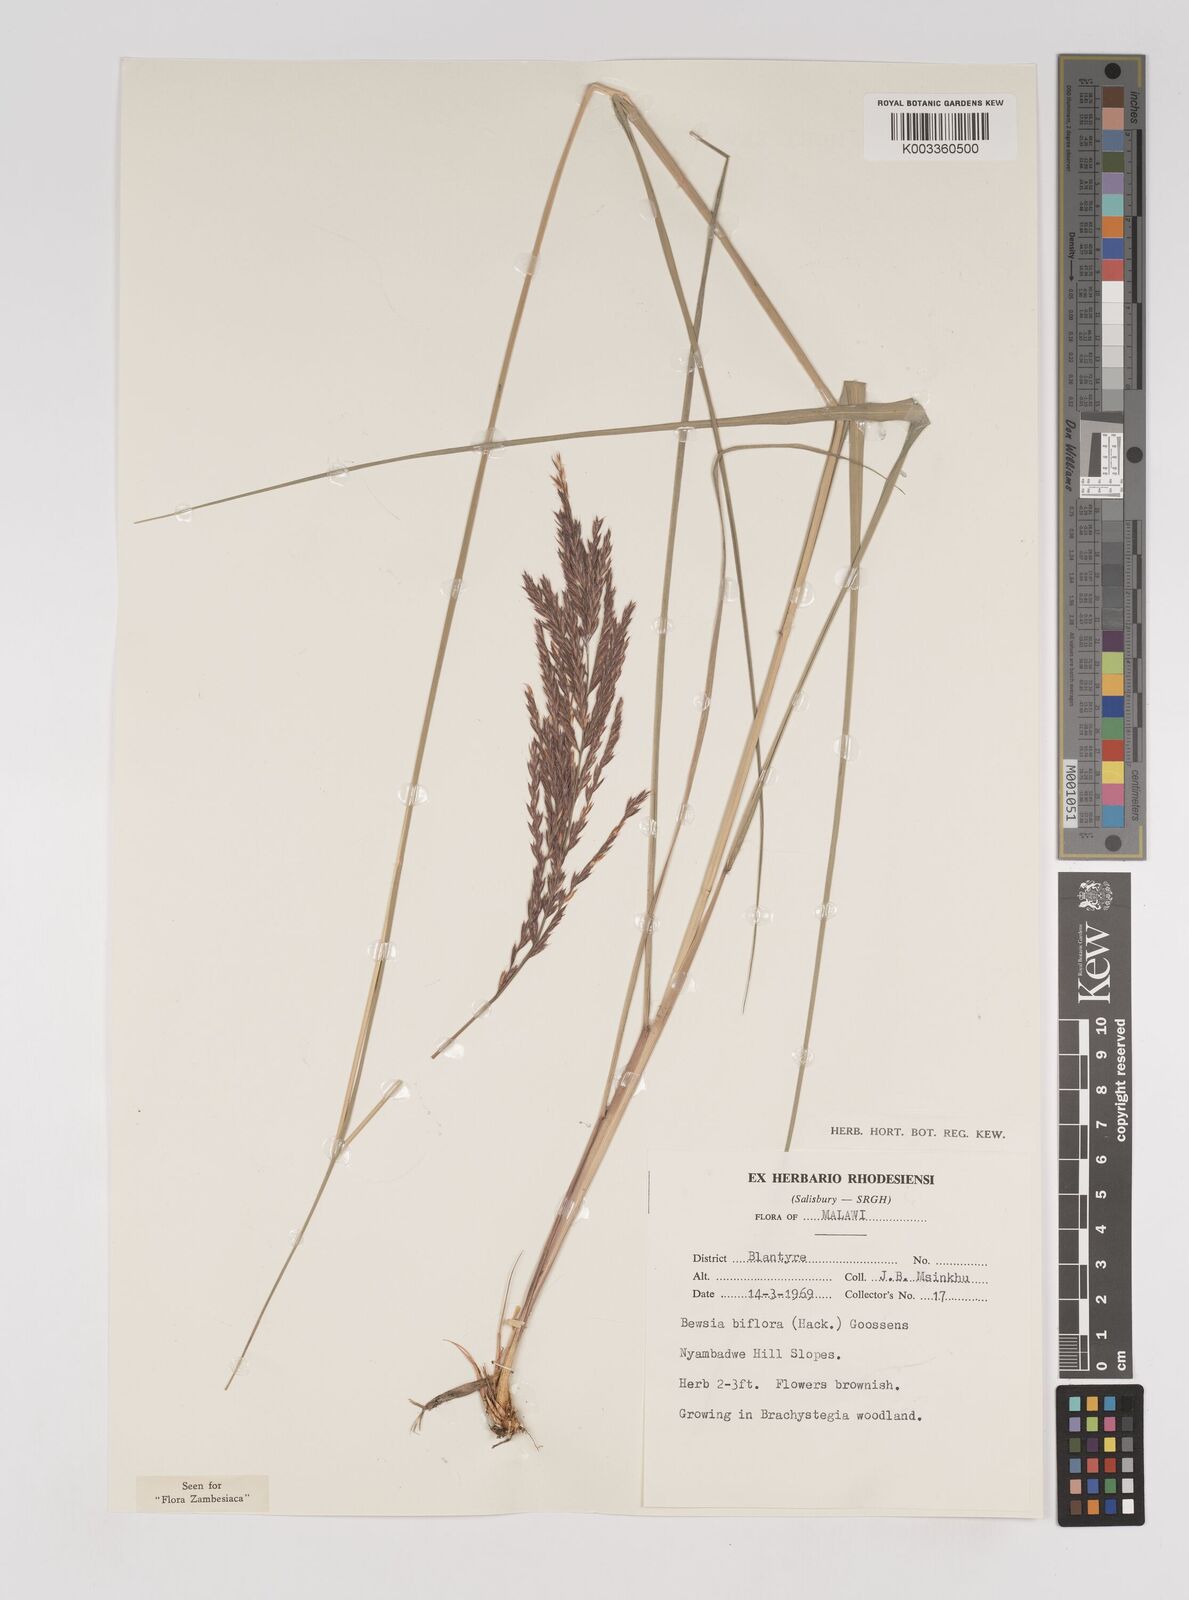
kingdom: Plantae
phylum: Tracheophyta
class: Liliopsida
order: Poales
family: Poaceae
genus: Bewsia
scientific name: Bewsia biflora
